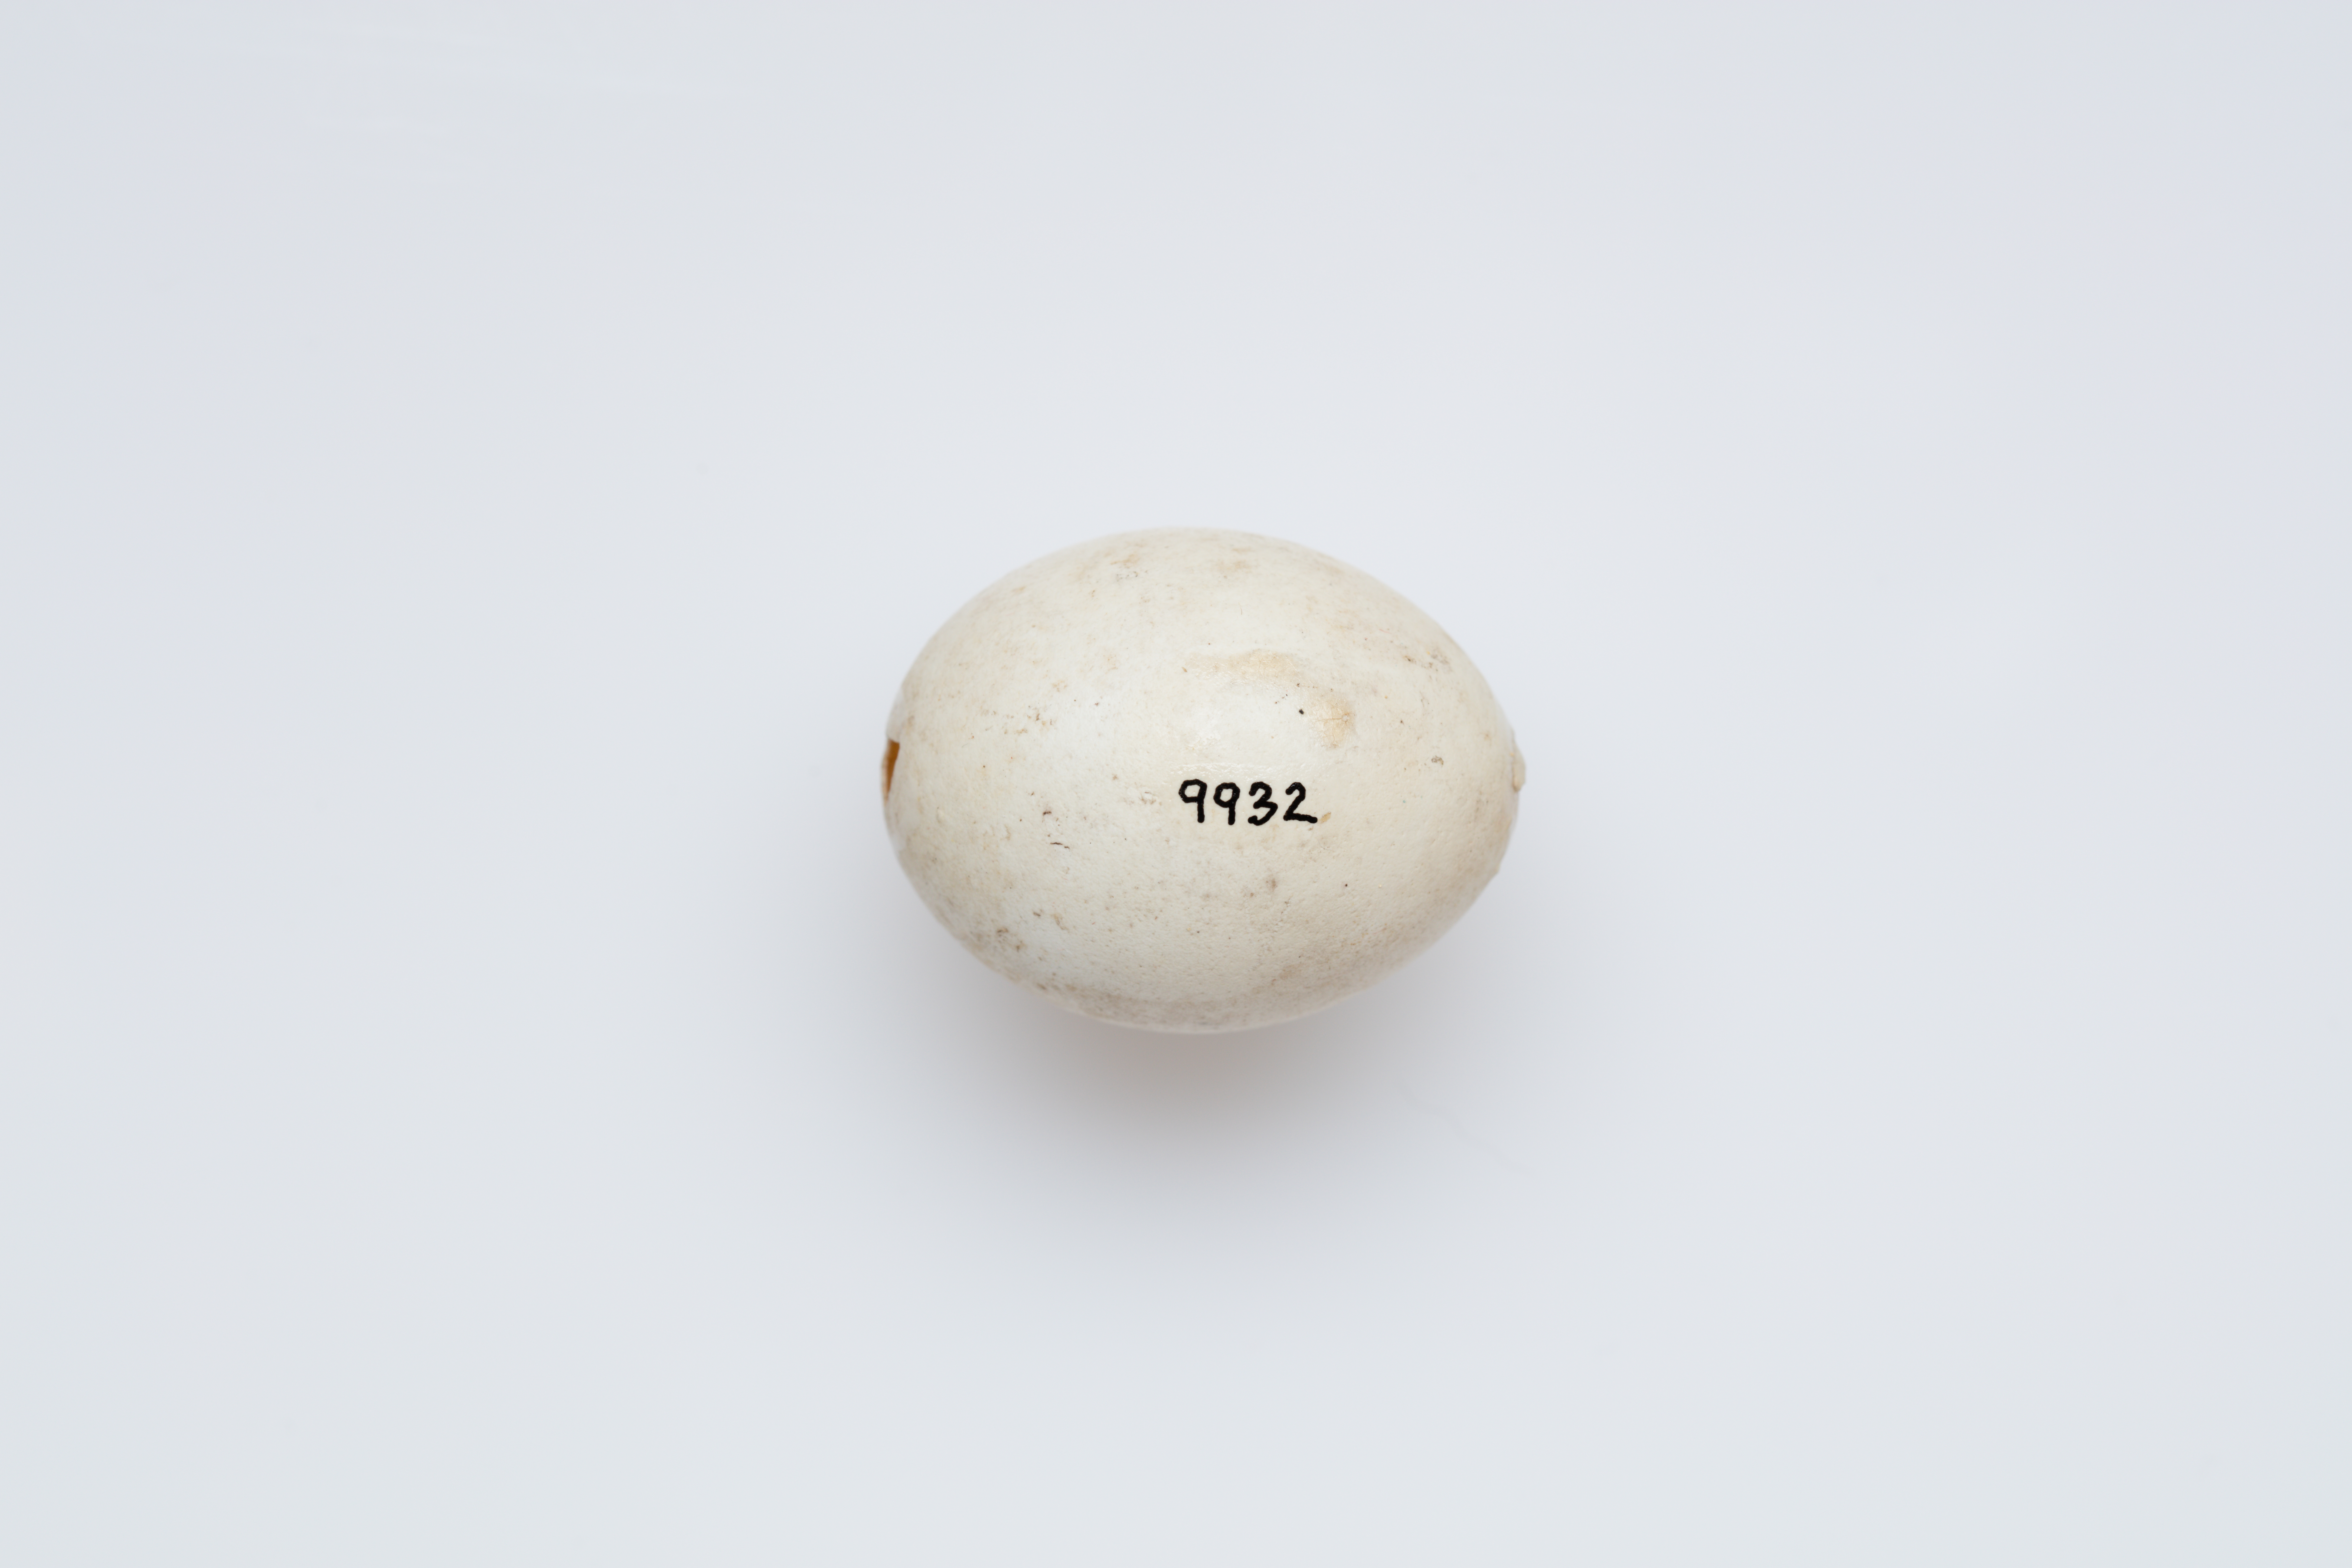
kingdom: Animalia
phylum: Chordata
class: Aves
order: Procellariiformes
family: Hydrobatidae
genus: Oceanodroma
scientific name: Oceanodroma leucorhoa
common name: Leach's storm-petrel
